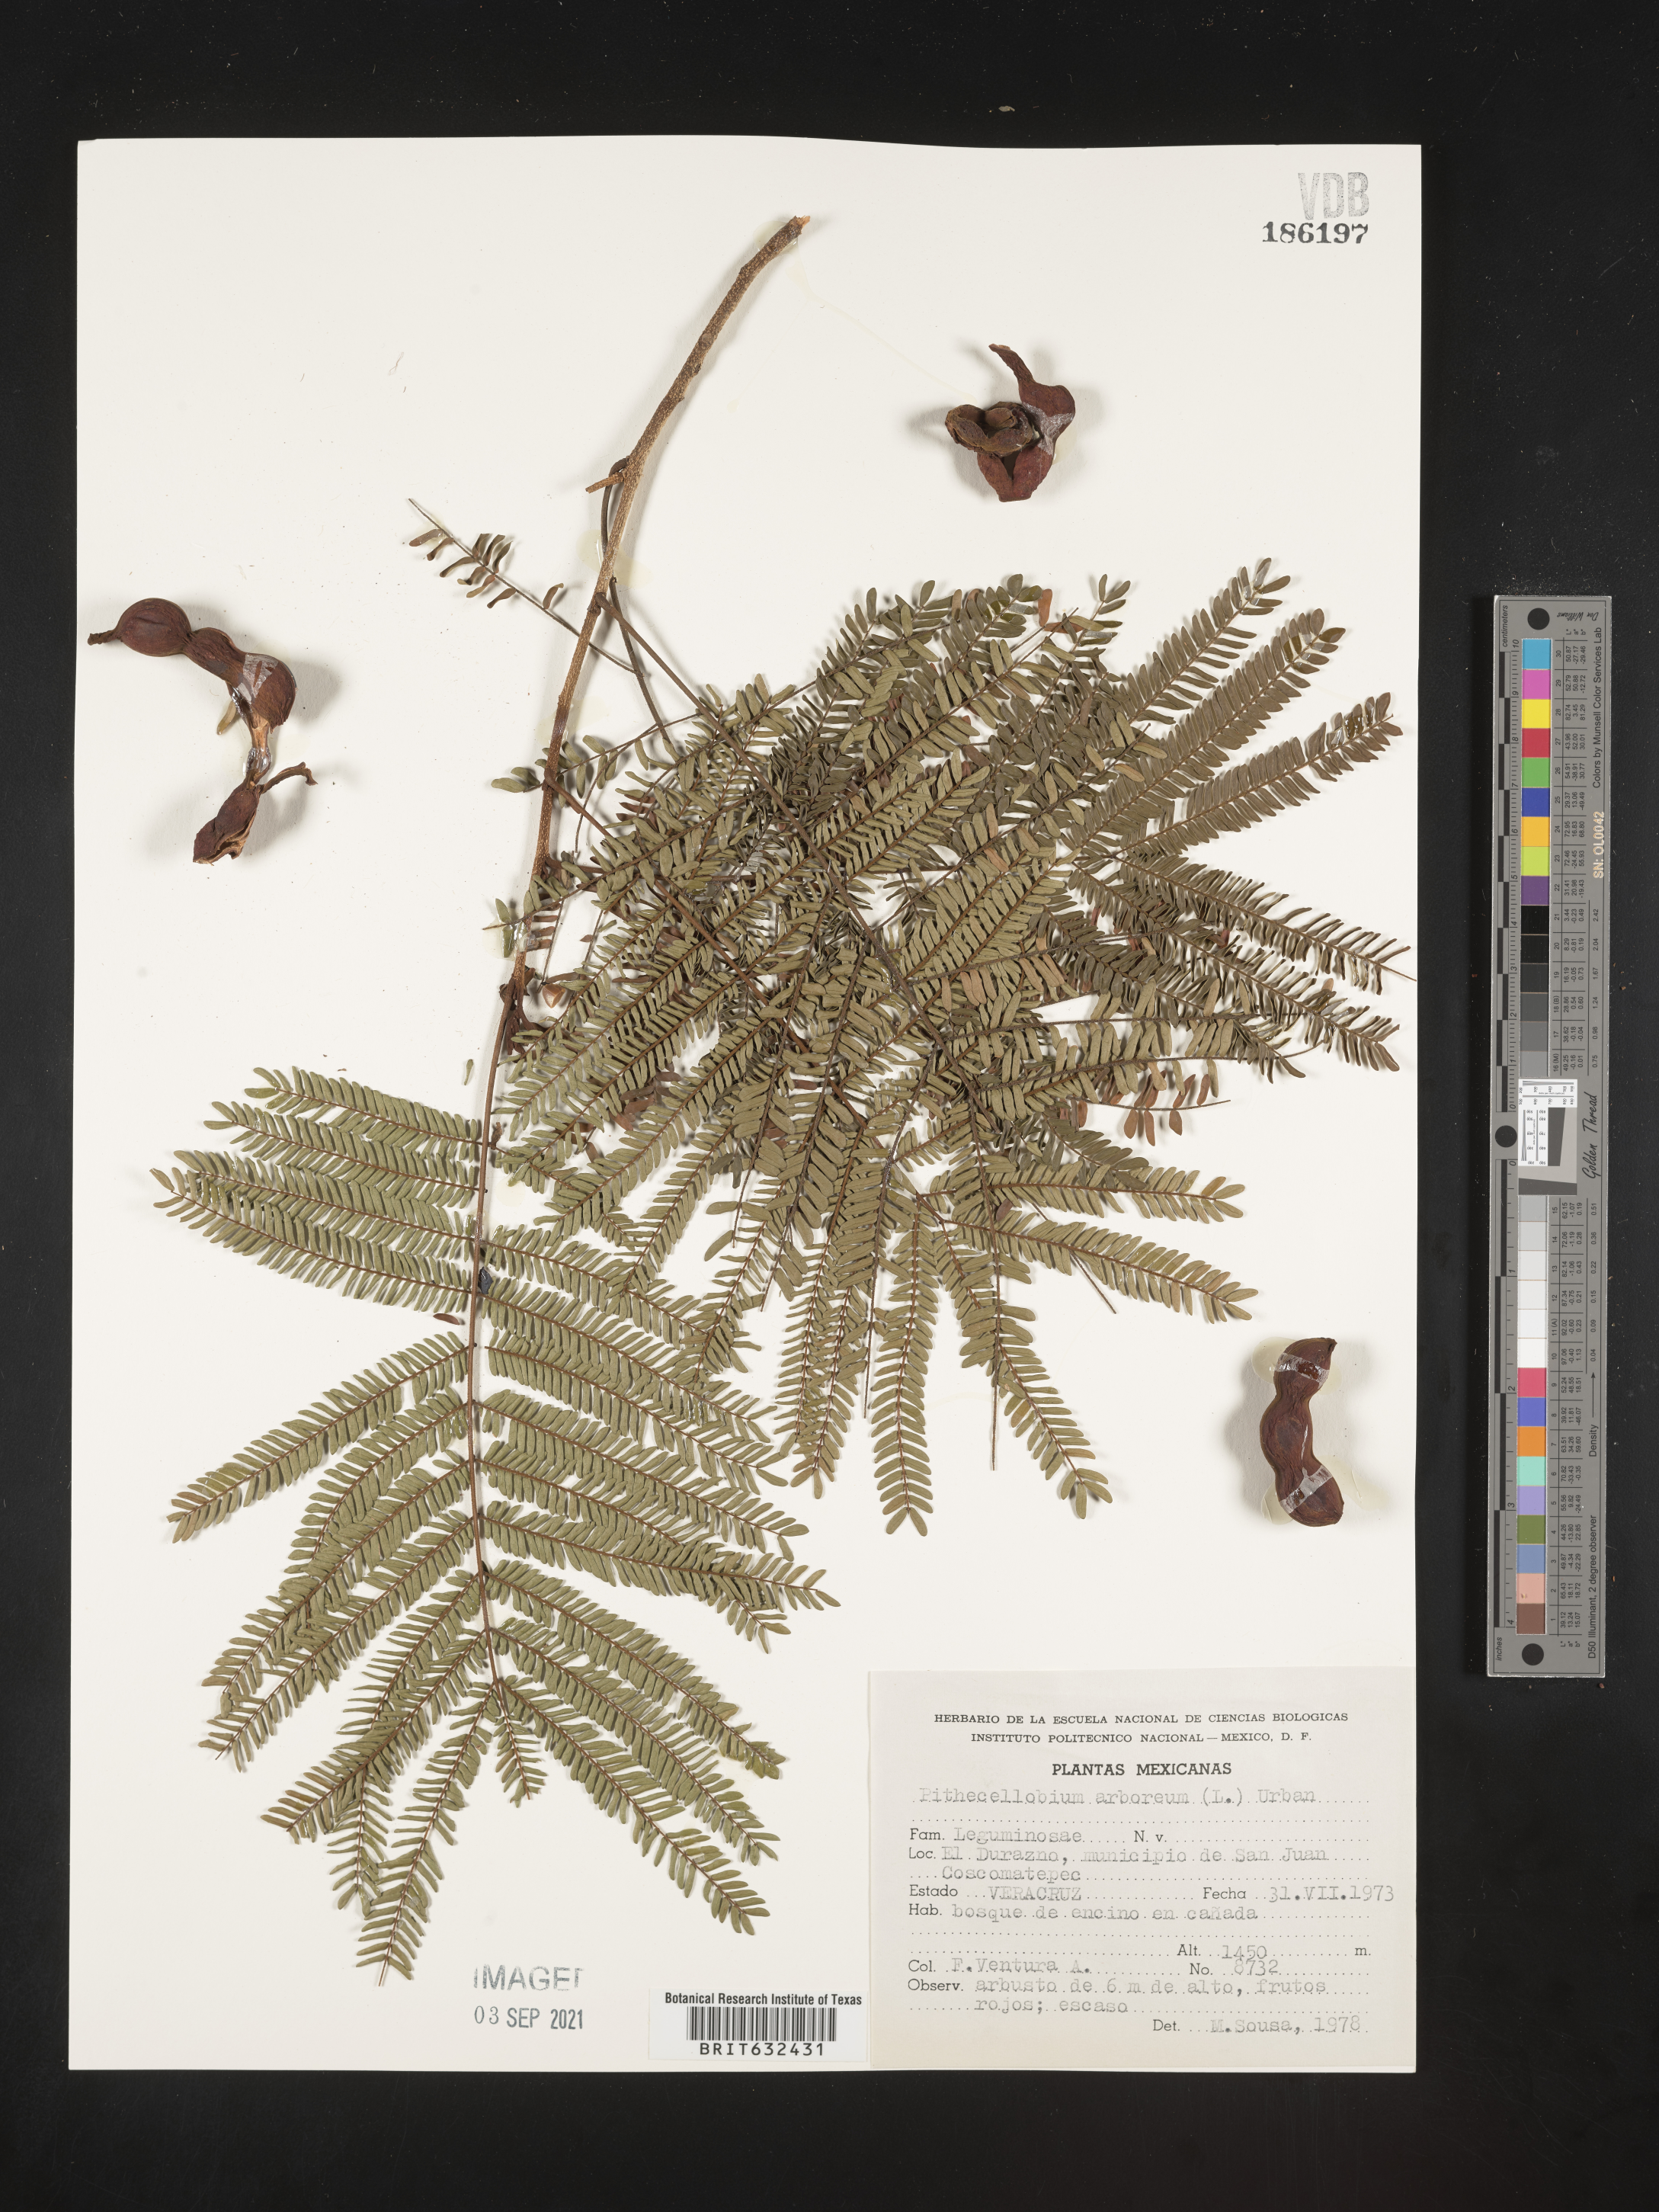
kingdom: Plantae
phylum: Tracheophyta
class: Magnoliopsida
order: Fabales
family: Fabaceae
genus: Pithecellobium
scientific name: Pithecellobium
